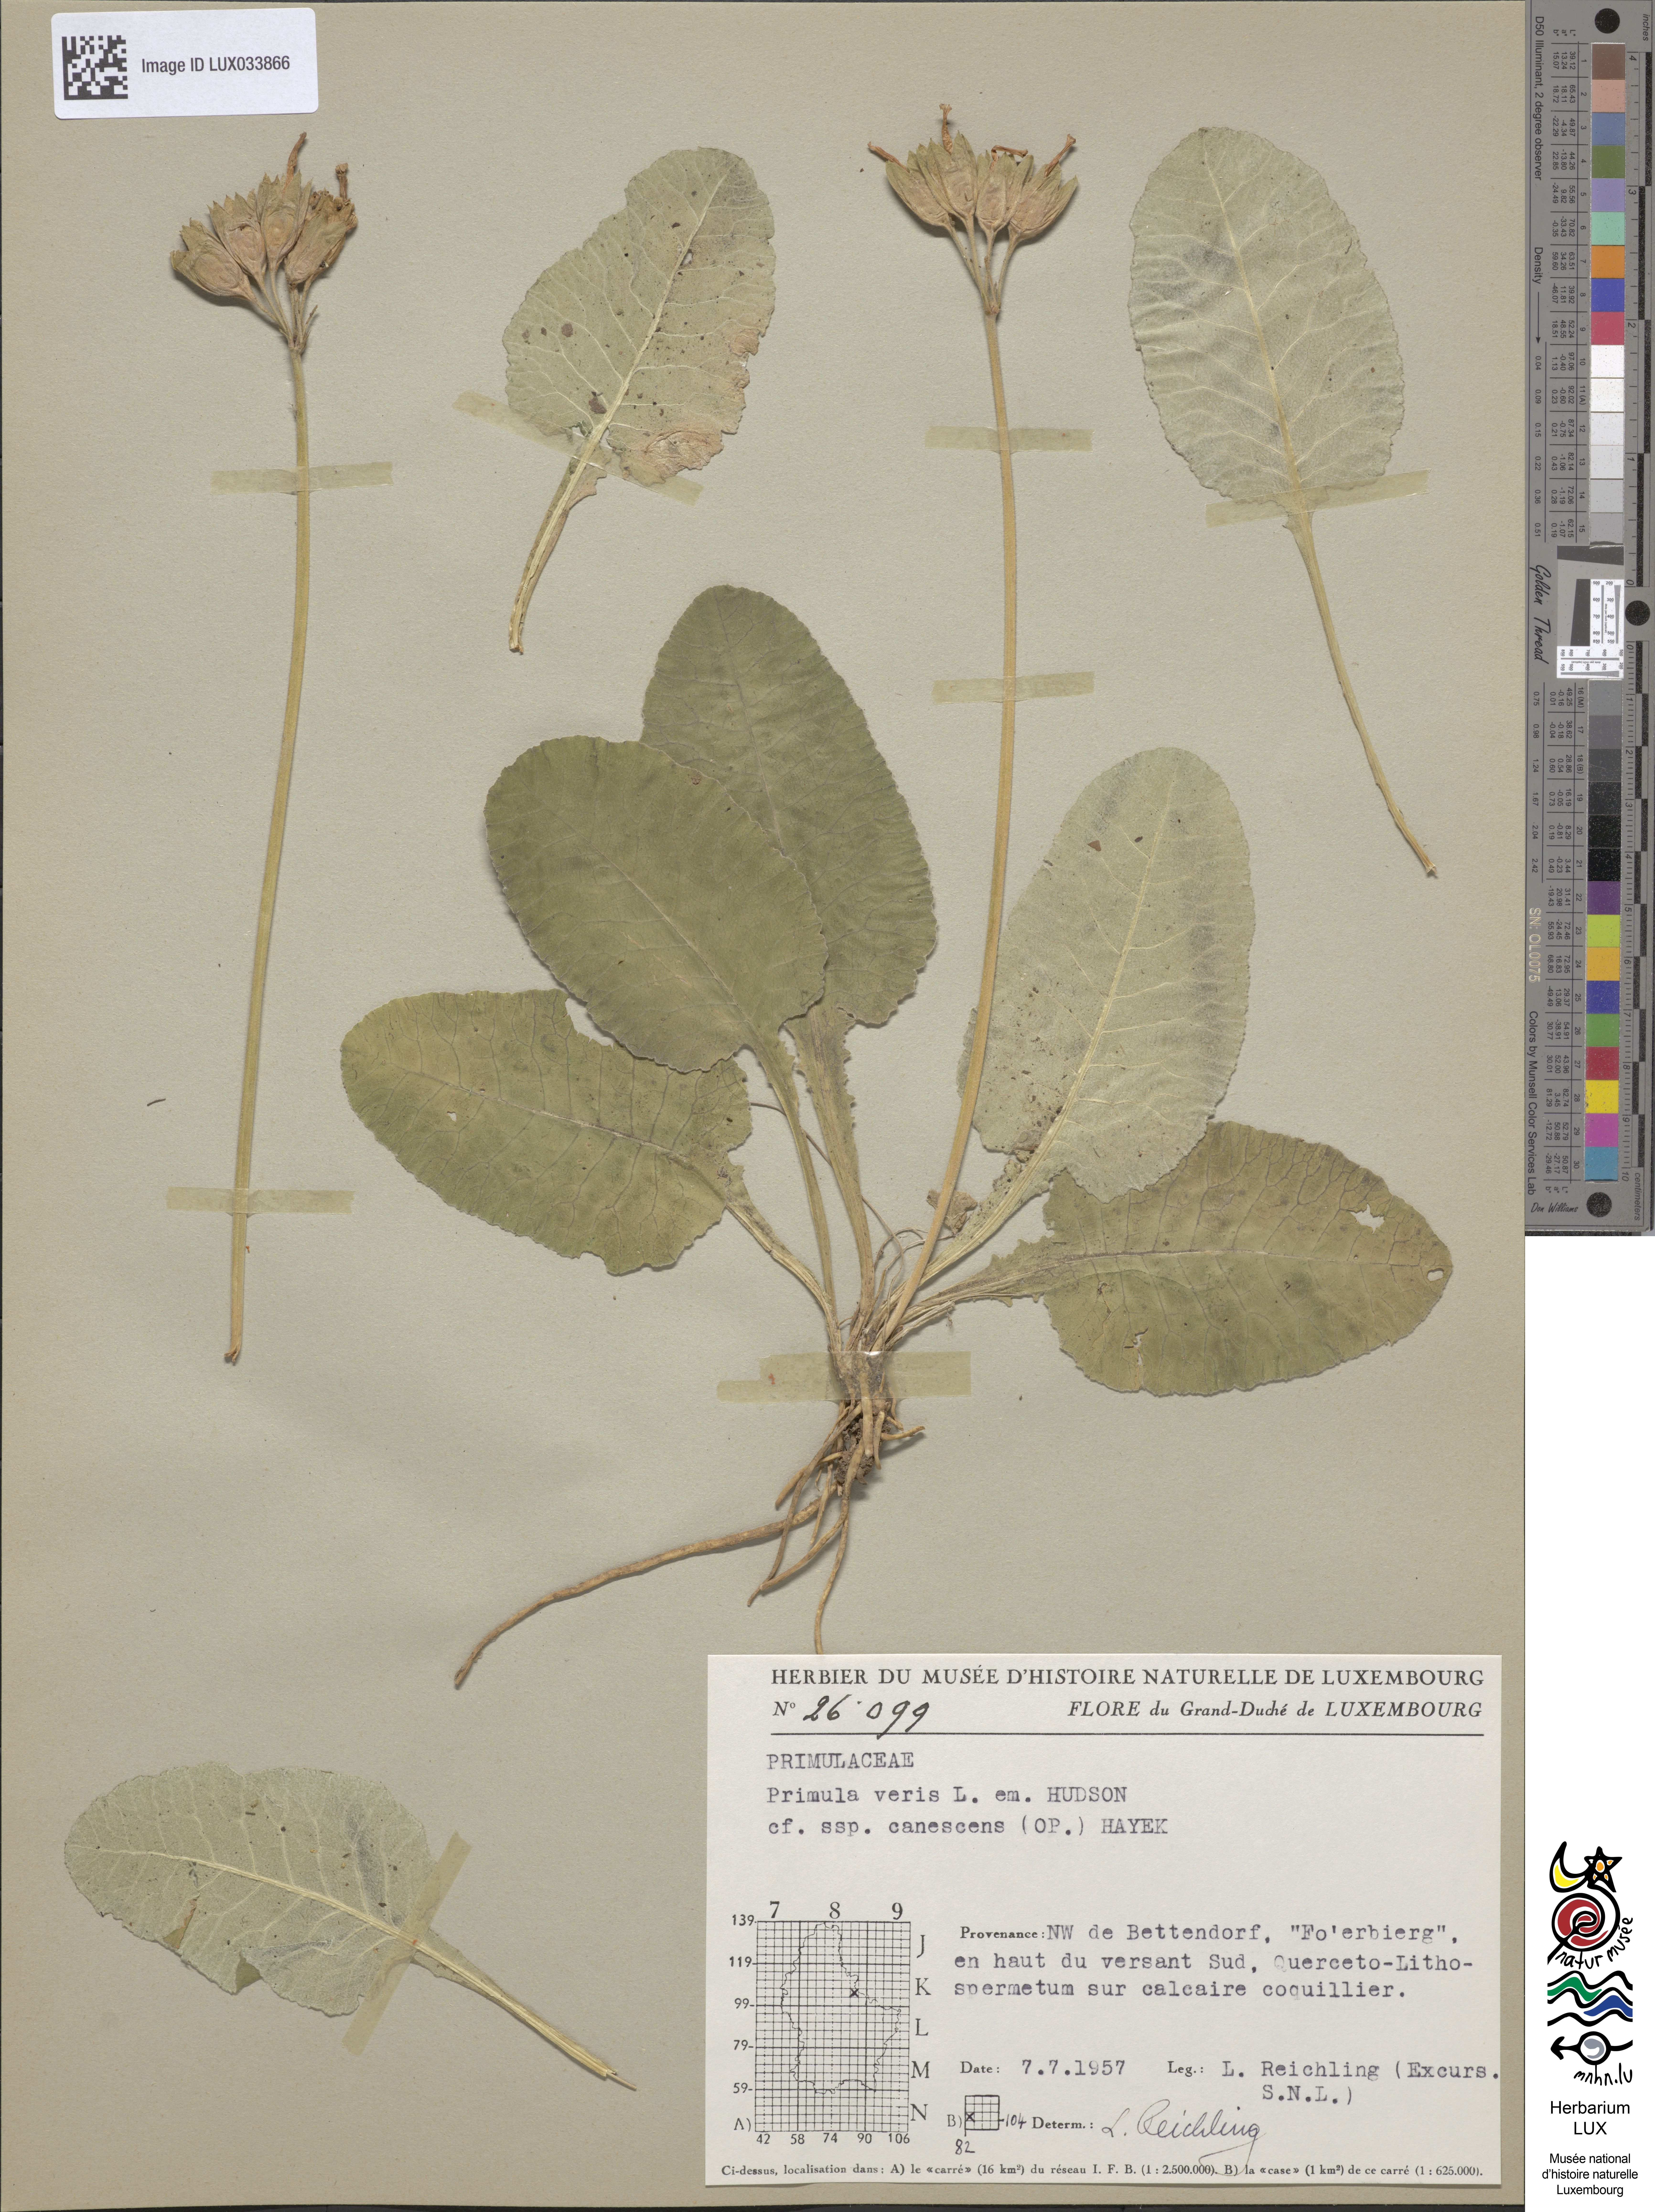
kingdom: Plantae
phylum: Tracheophyta
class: Magnoliopsida
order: Ericales
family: Primulaceae
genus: Primula
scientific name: Primula veris
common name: Cowslip
